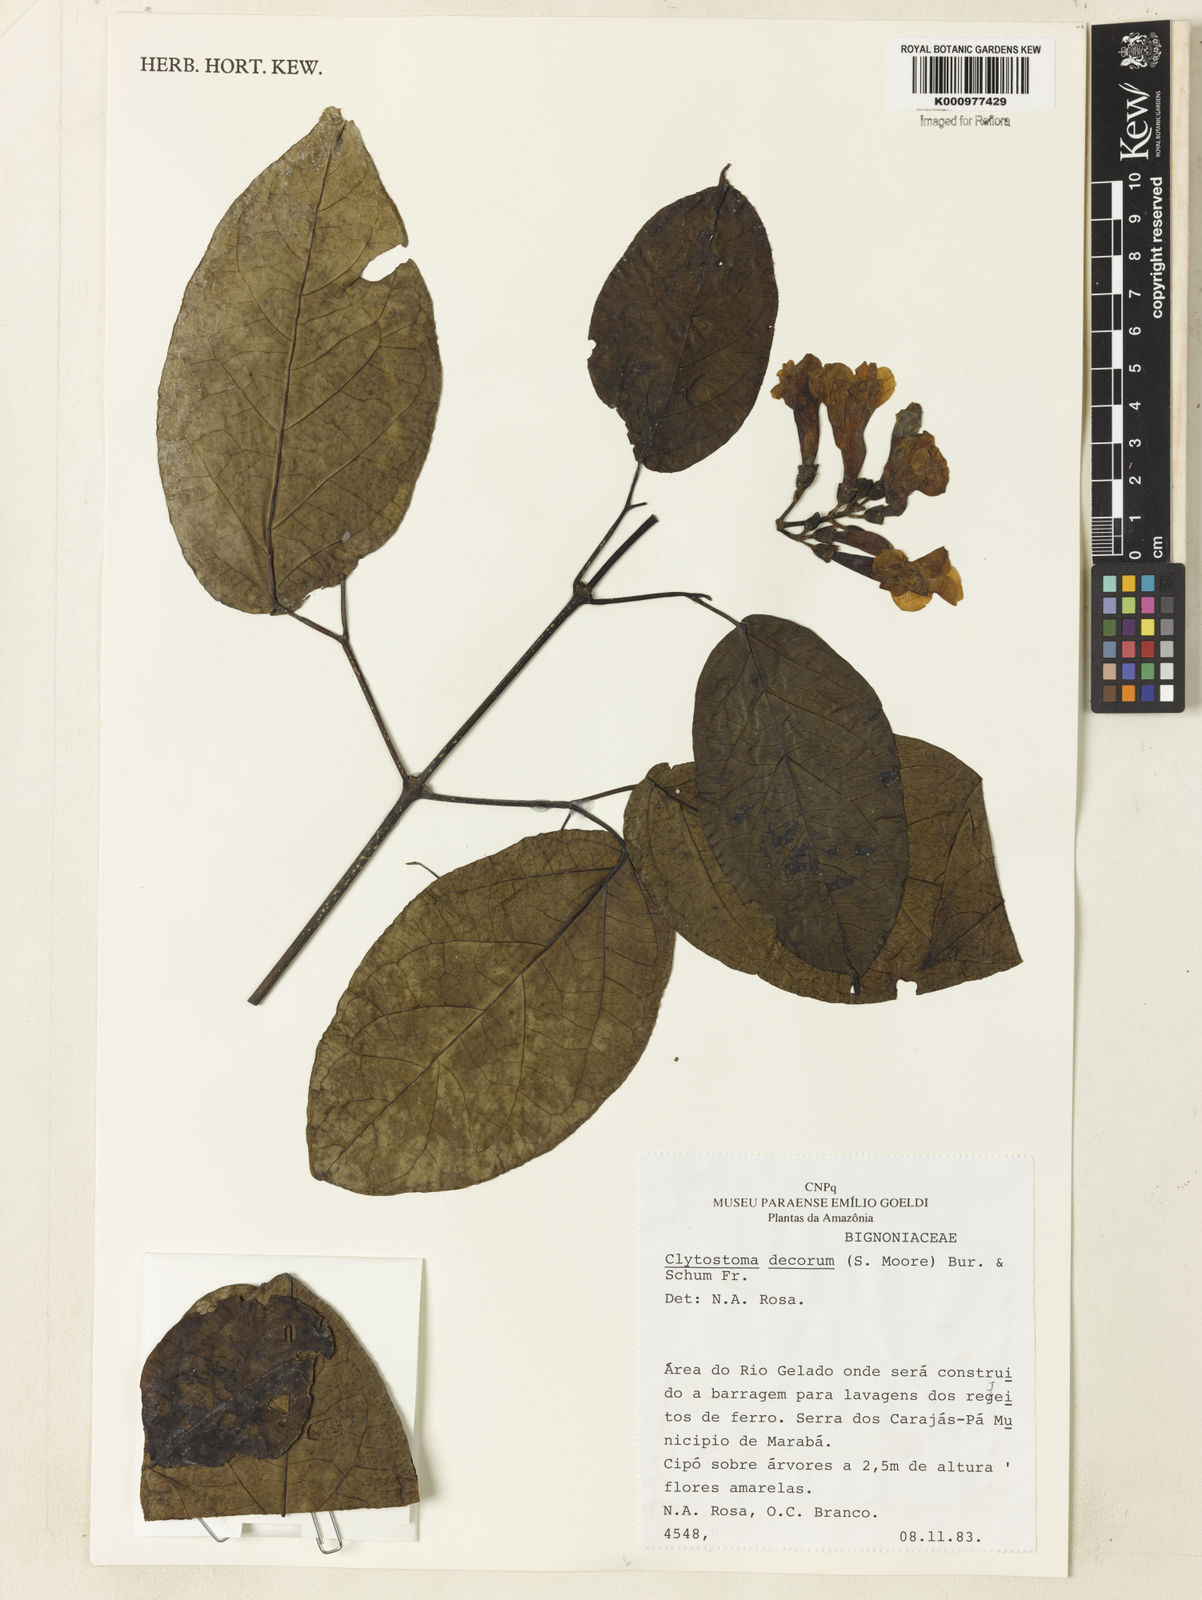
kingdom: Plantae
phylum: Tracheophyta
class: Magnoliopsida
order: Lamiales
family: Bignoniaceae
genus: Bignonia
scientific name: Bignonia decora
